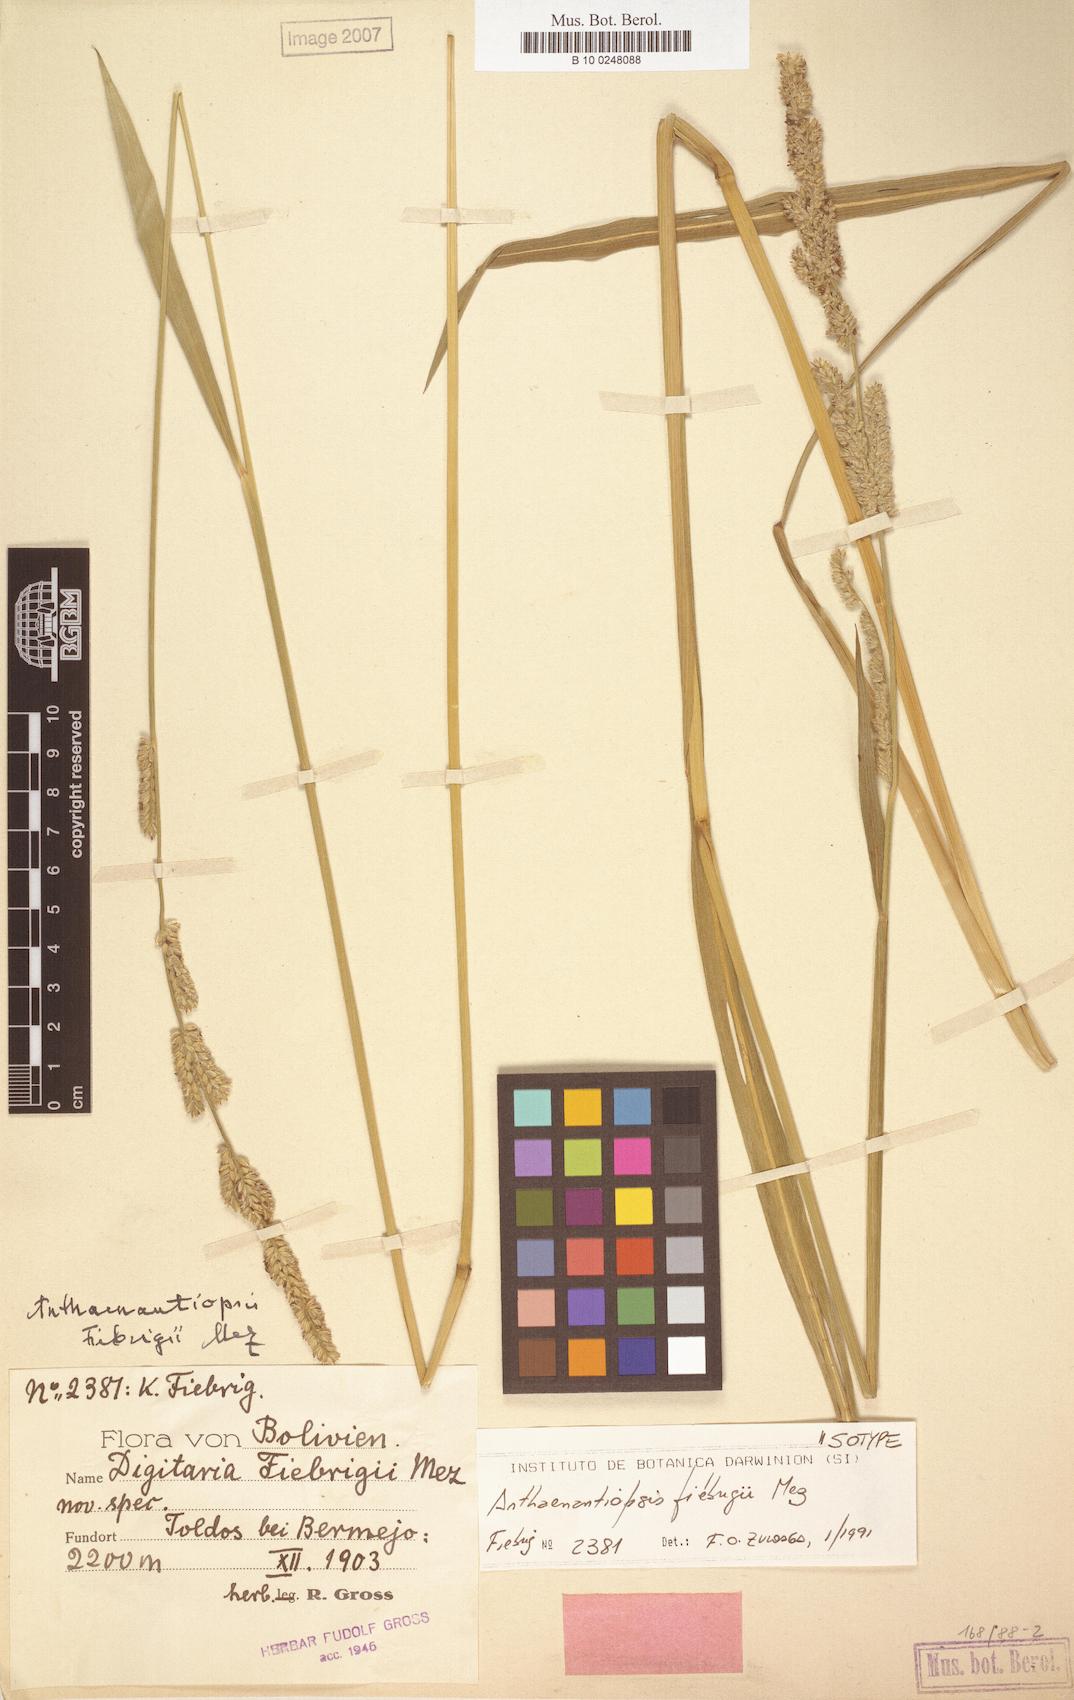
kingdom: Plantae
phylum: Tracheophyta
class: Liliopsida
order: Poales
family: Poaceae
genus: Anthaenantiopsis
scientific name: Anthaenantiopsis fiebrigii
